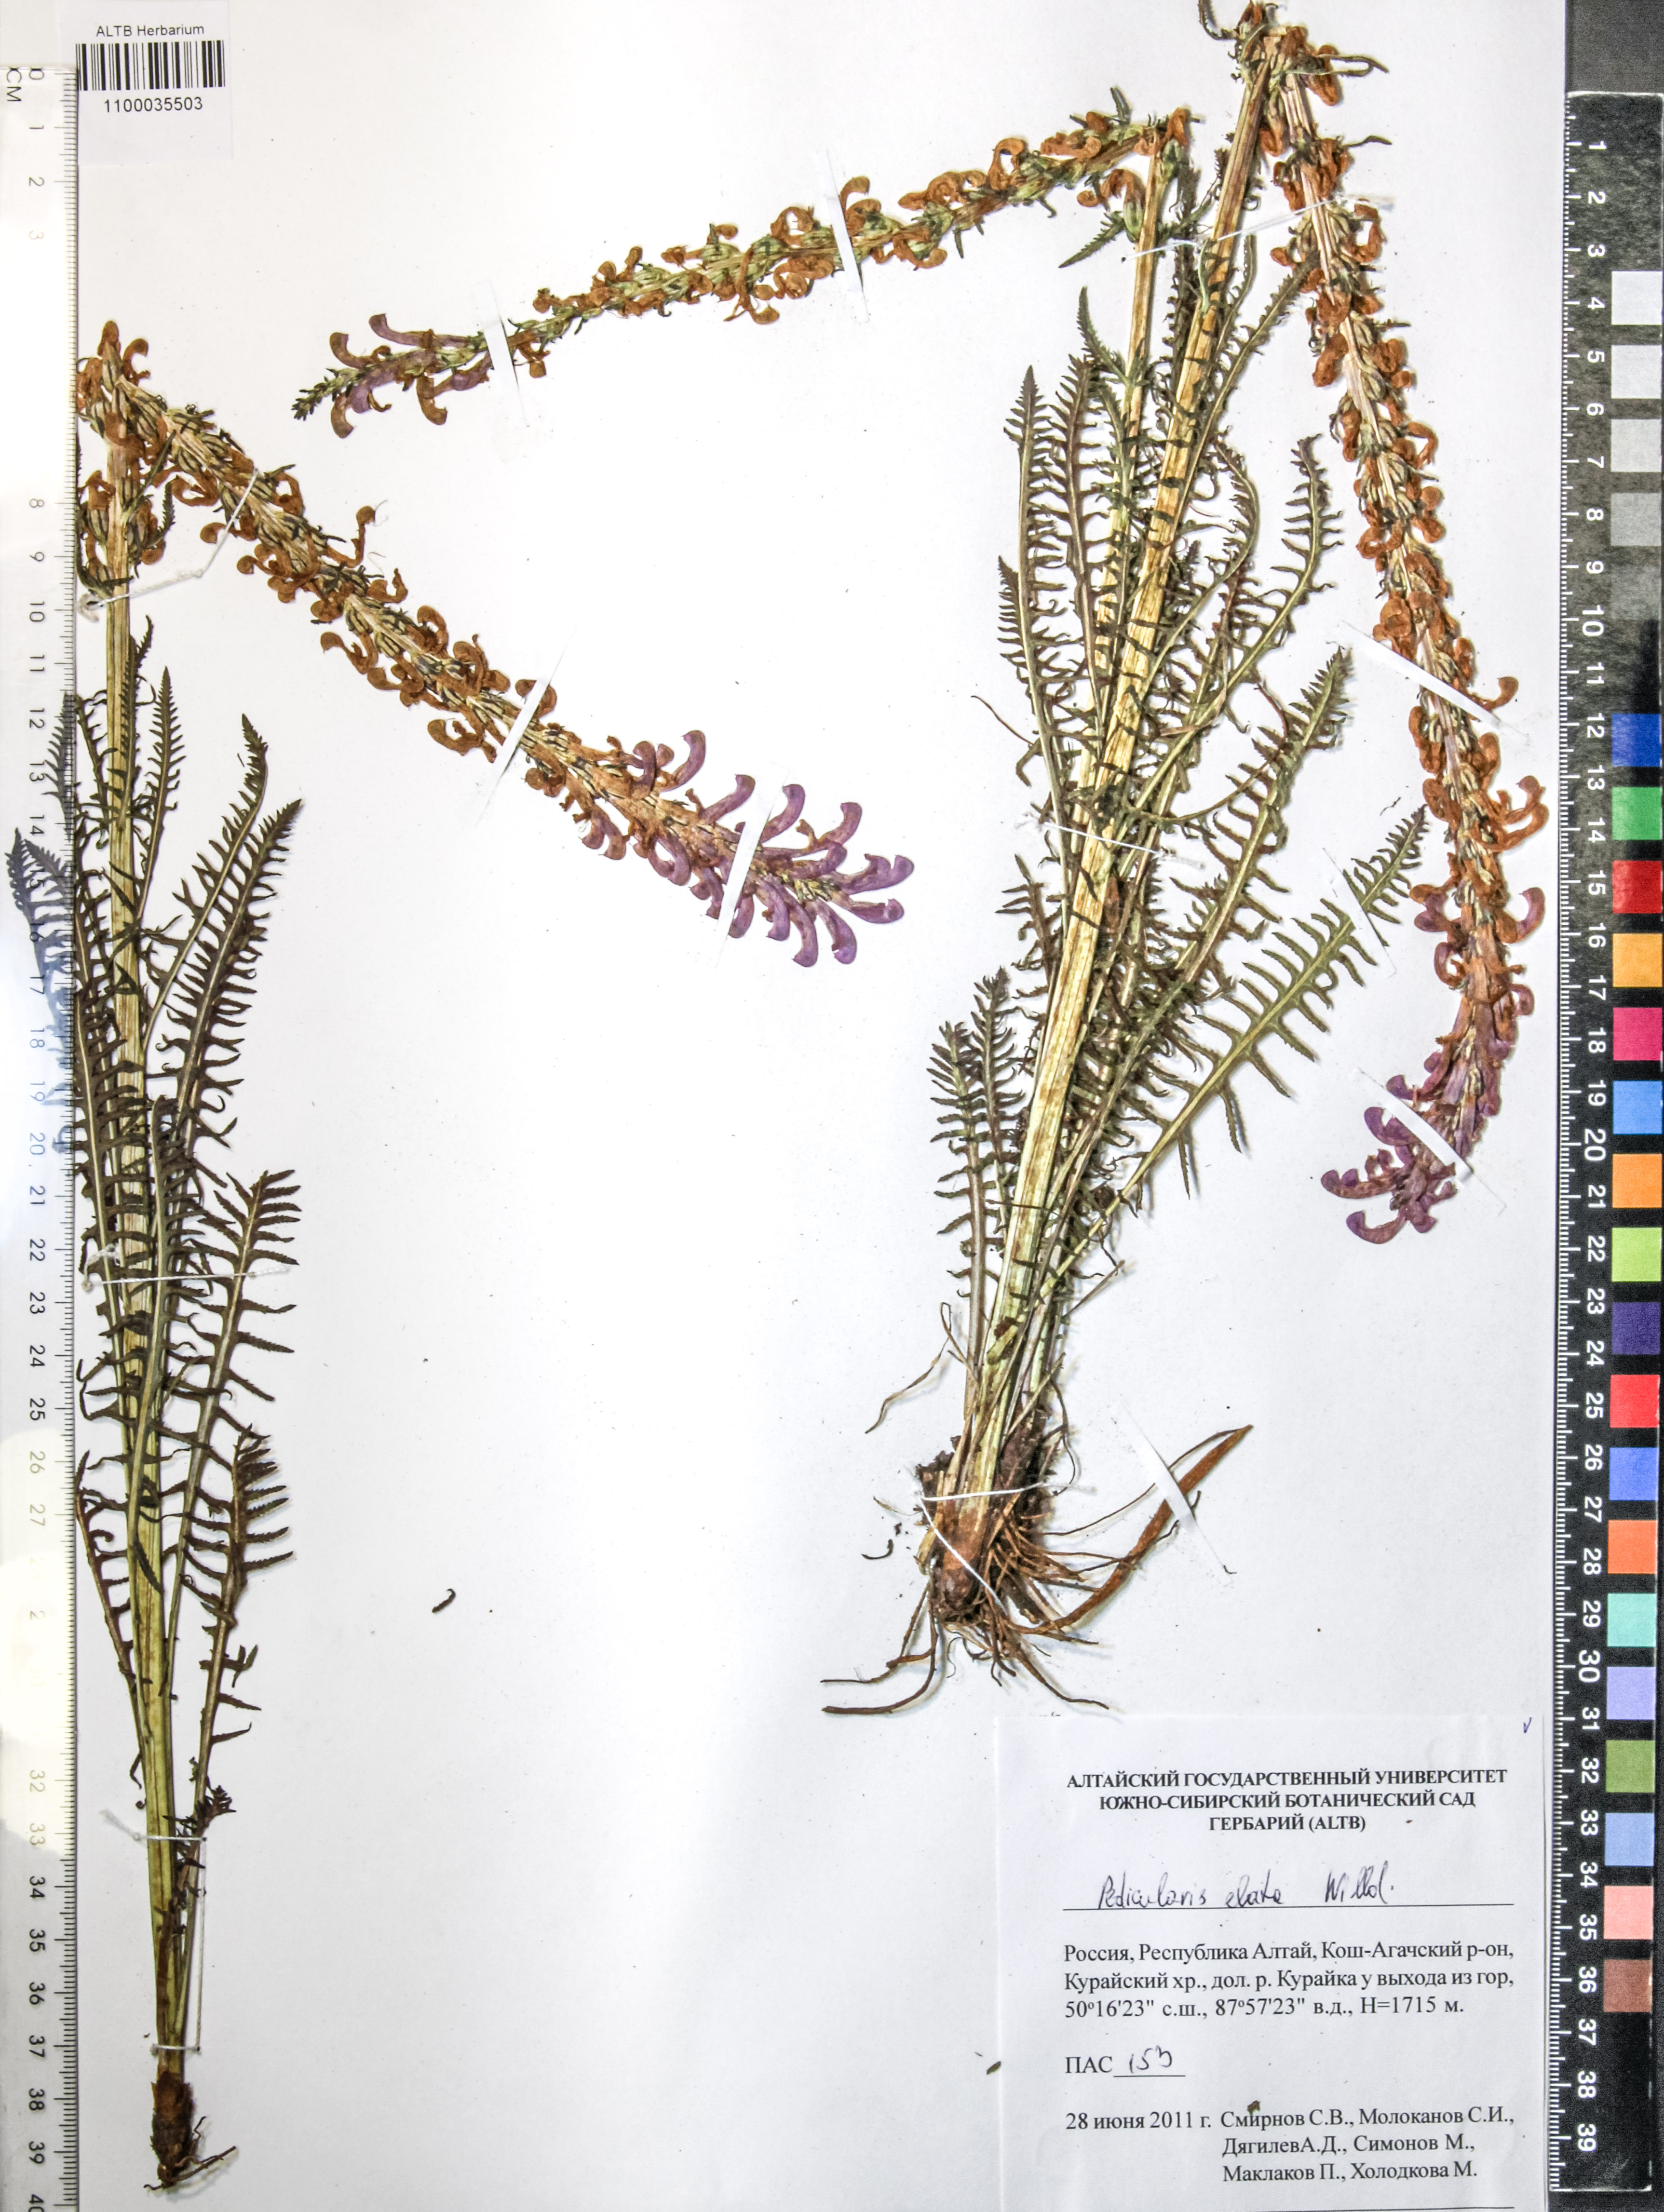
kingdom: Plantae
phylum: Tracheophyta
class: Magnoliopsida
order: Lamiales
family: Orobanchaceae
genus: Pedicularis
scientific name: Pedicularis elata
